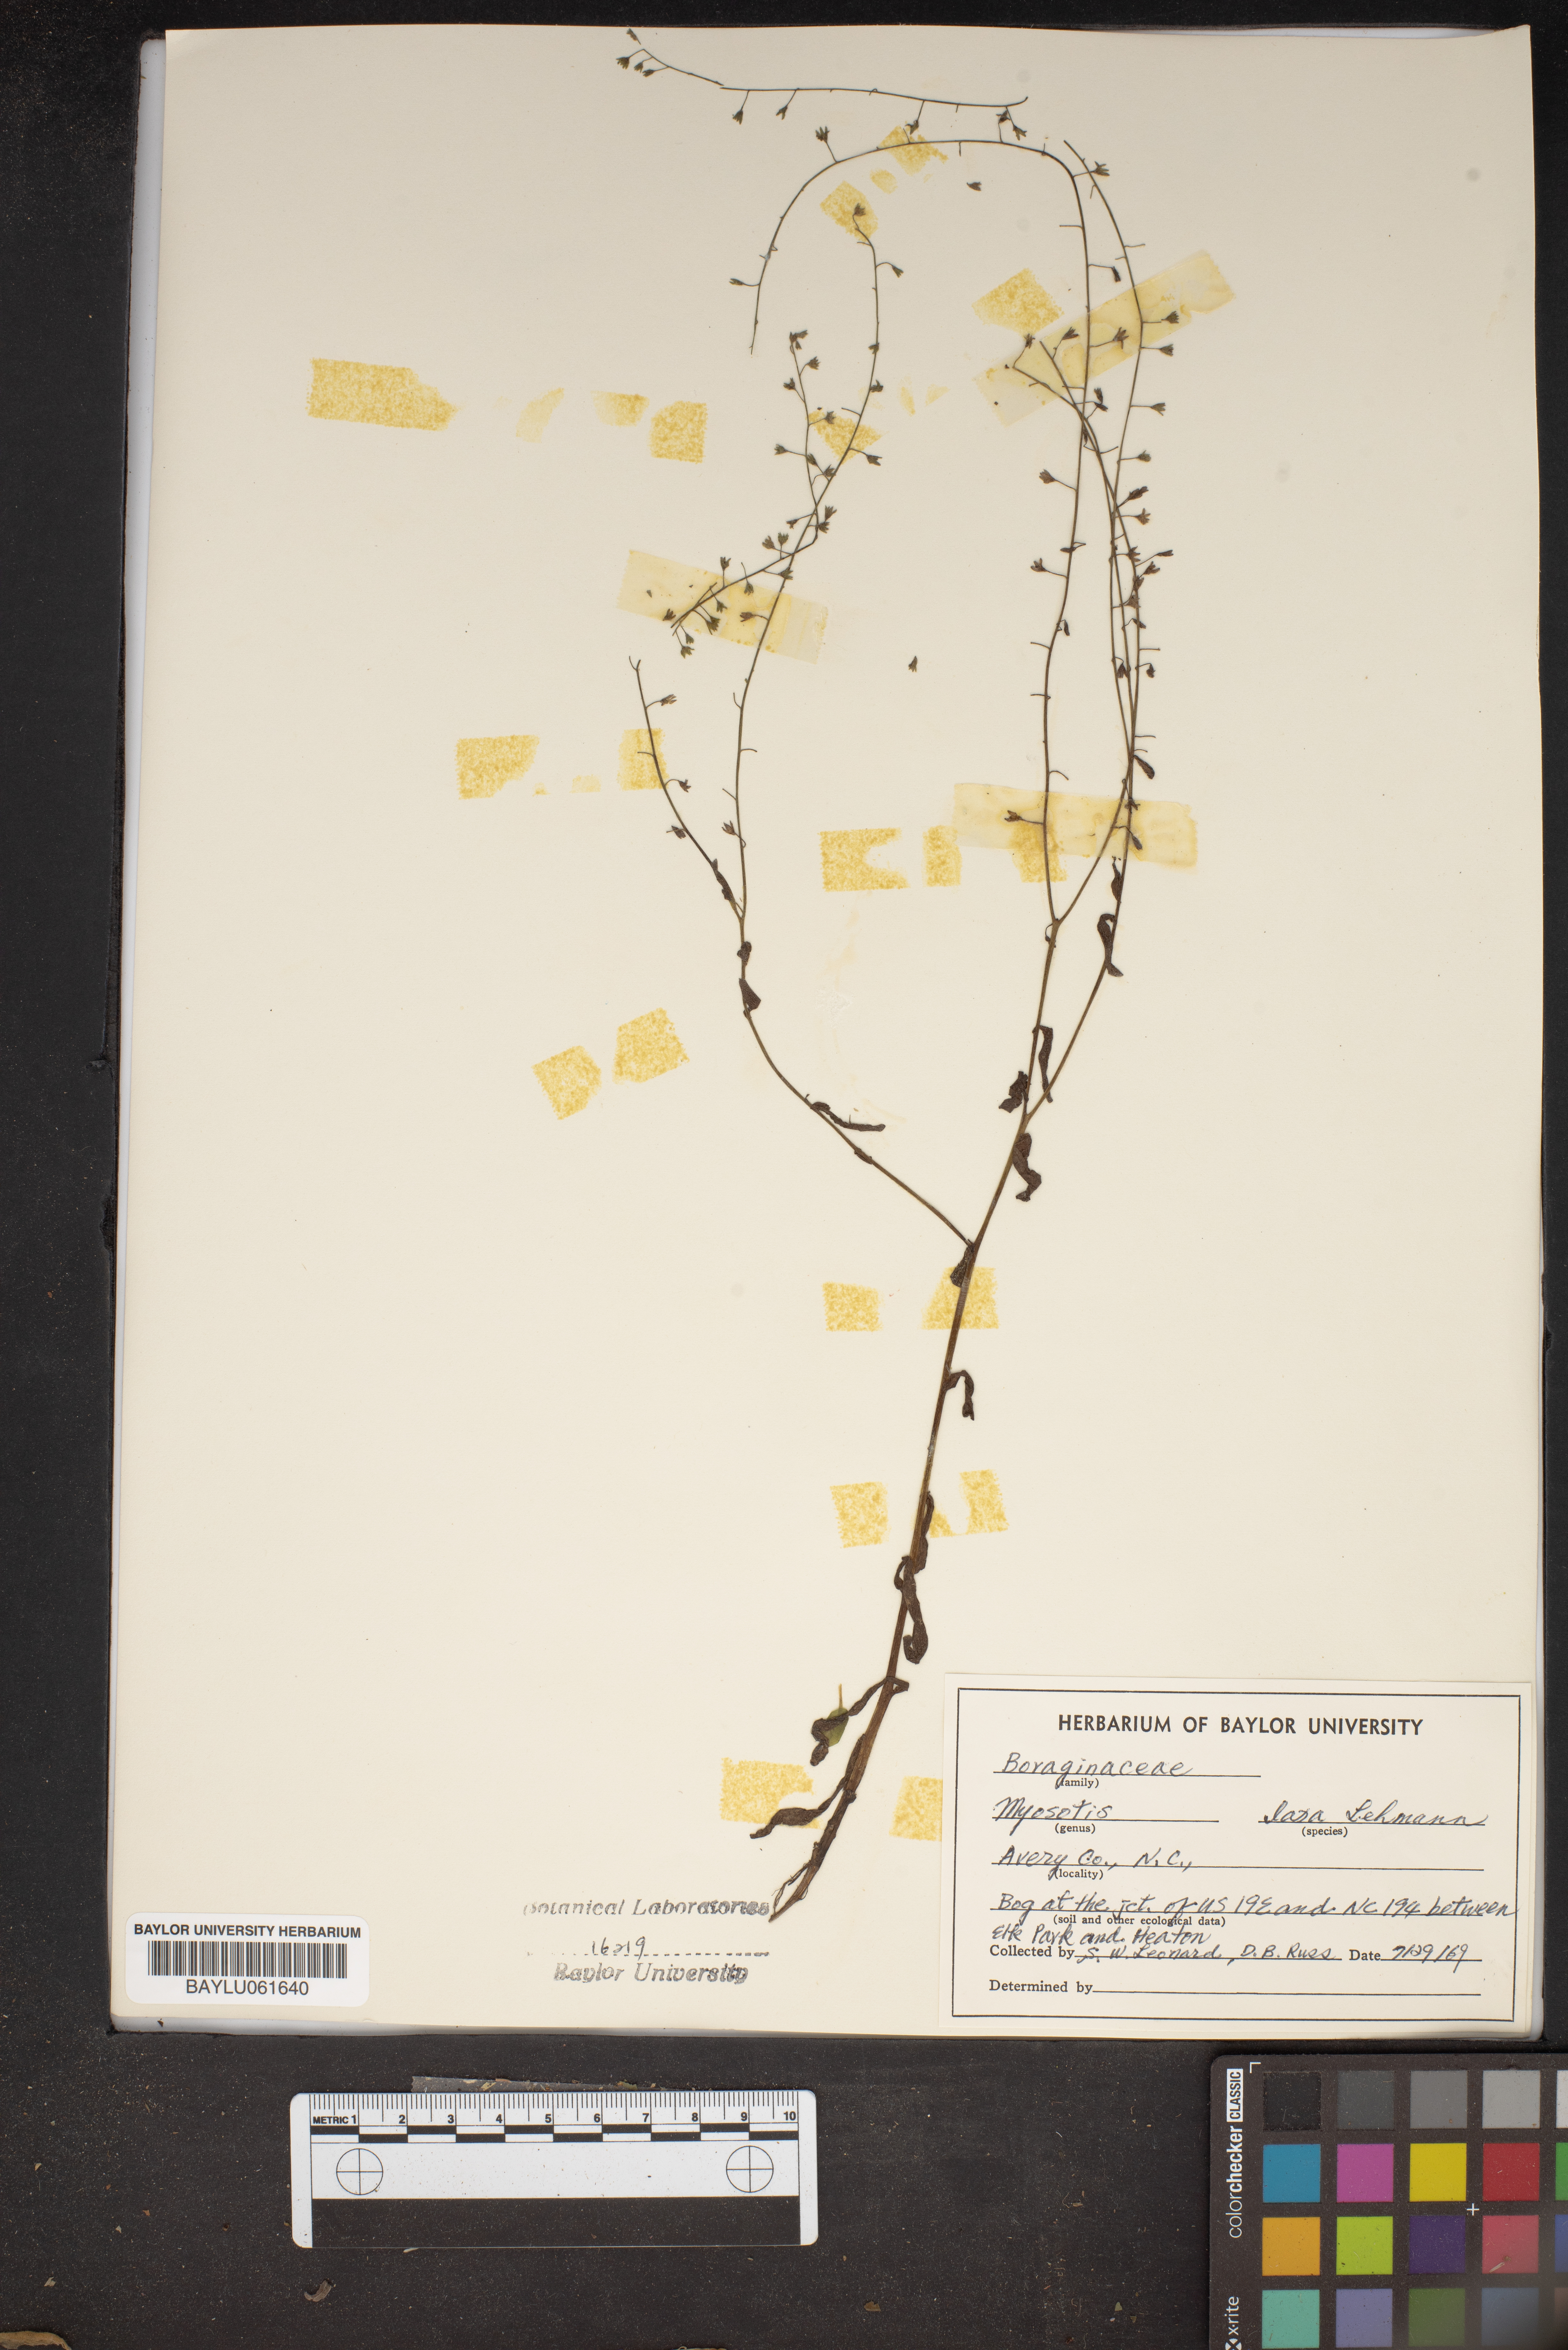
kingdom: Plantae
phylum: Tracheophyta
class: Magnoliopsida
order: Boraginales
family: Boraginaceae
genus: Myosotis
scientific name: Myosotis laxa
